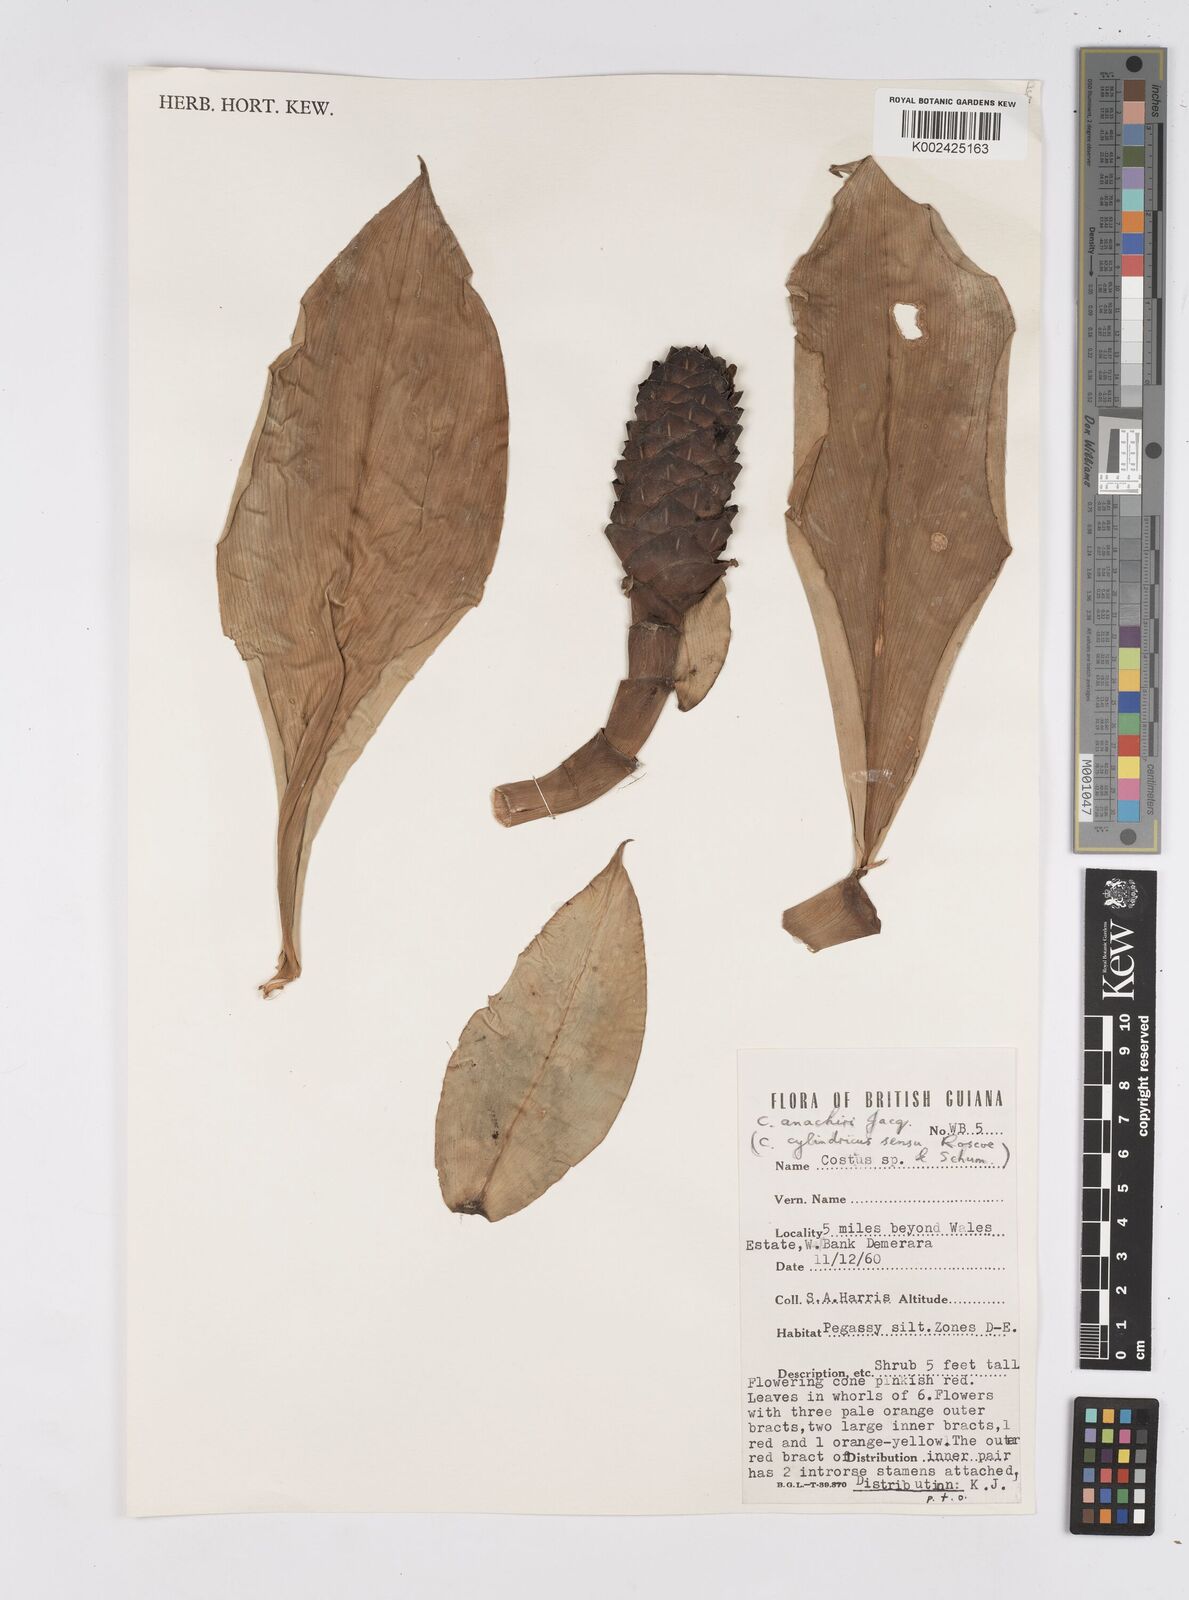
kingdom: Plantae
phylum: Tracheophyta
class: Liliopsida
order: Zingiberales
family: Costaceae
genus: Costus
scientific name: Costus scaber
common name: Spiral head ginger
